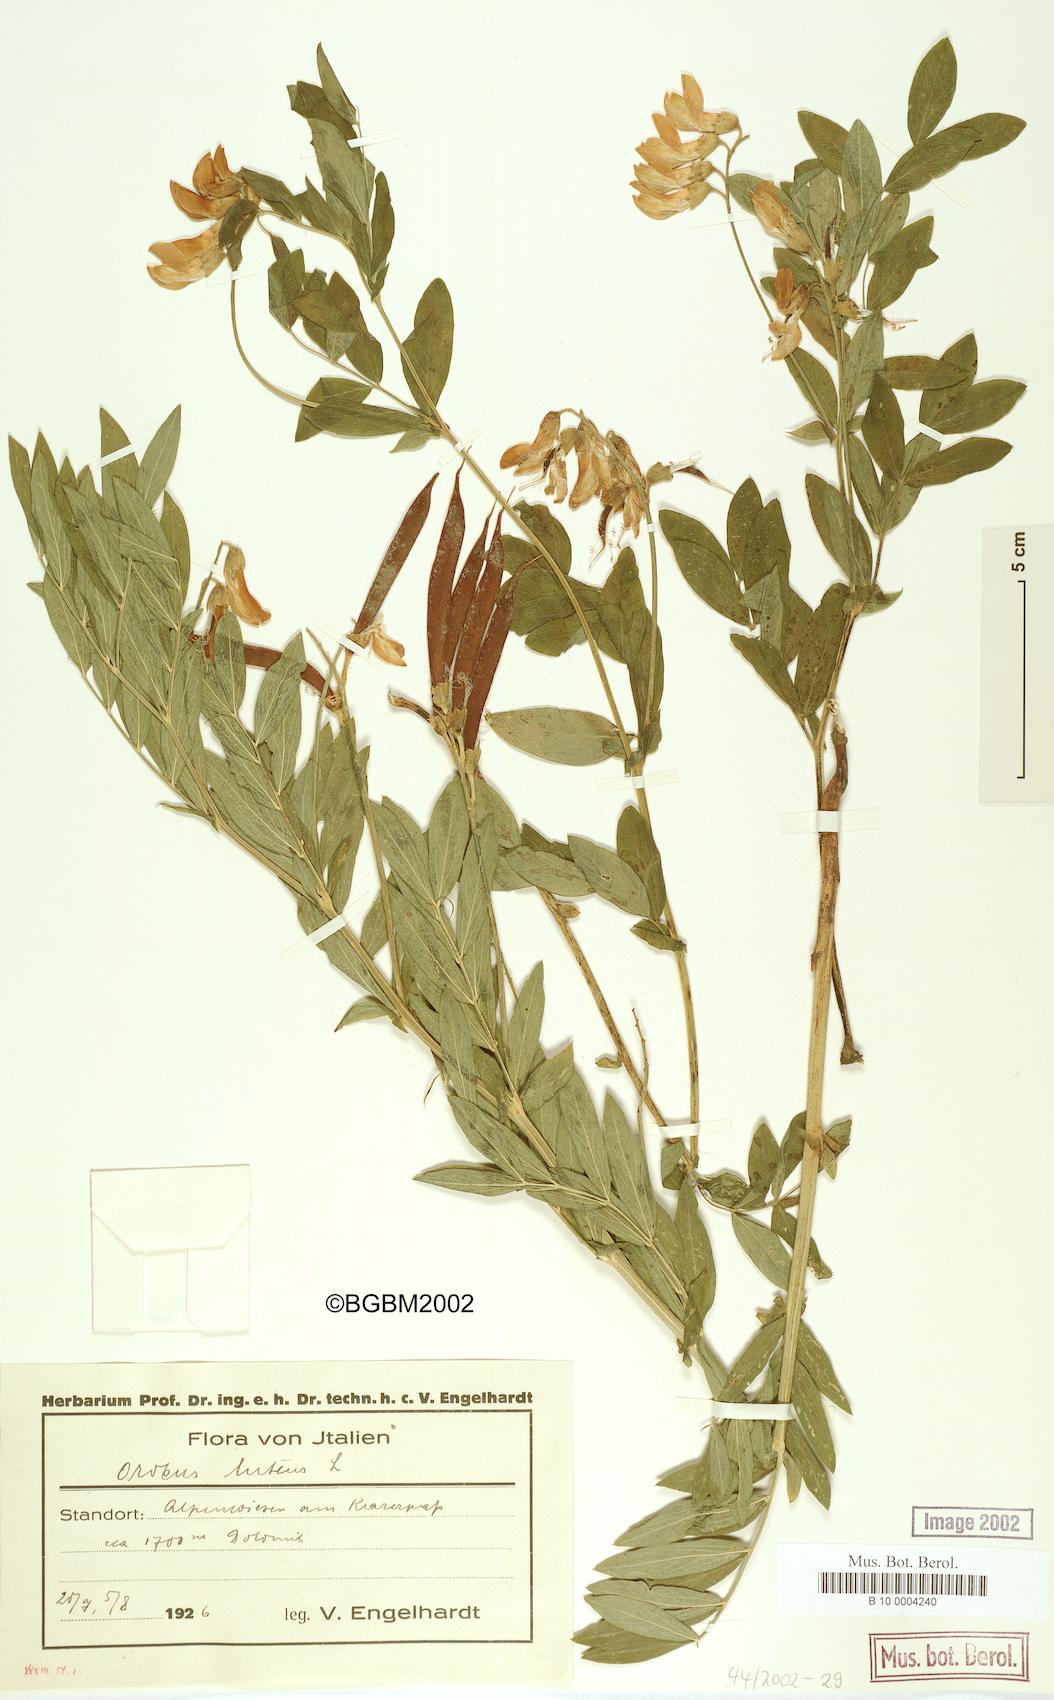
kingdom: Plantae
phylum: Tracheophyta
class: Magnoliopsida
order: Fabales
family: Fabaceae
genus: Lathyrus
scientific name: Lathyrus gmelinii
